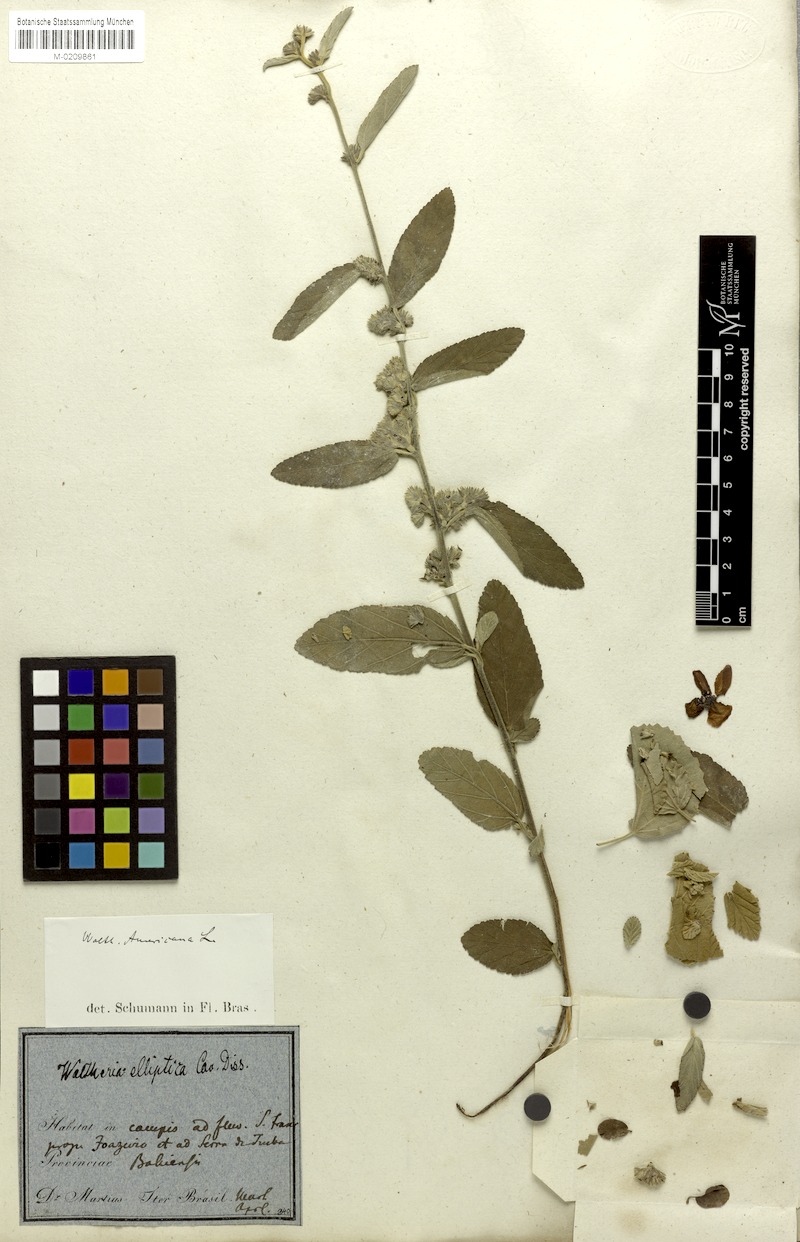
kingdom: Plantae
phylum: Tracheophyta
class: Magnoliopsida
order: Malvales
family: Malvaceae
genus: Waltheria
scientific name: Waltheria indica
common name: Leather-coat
